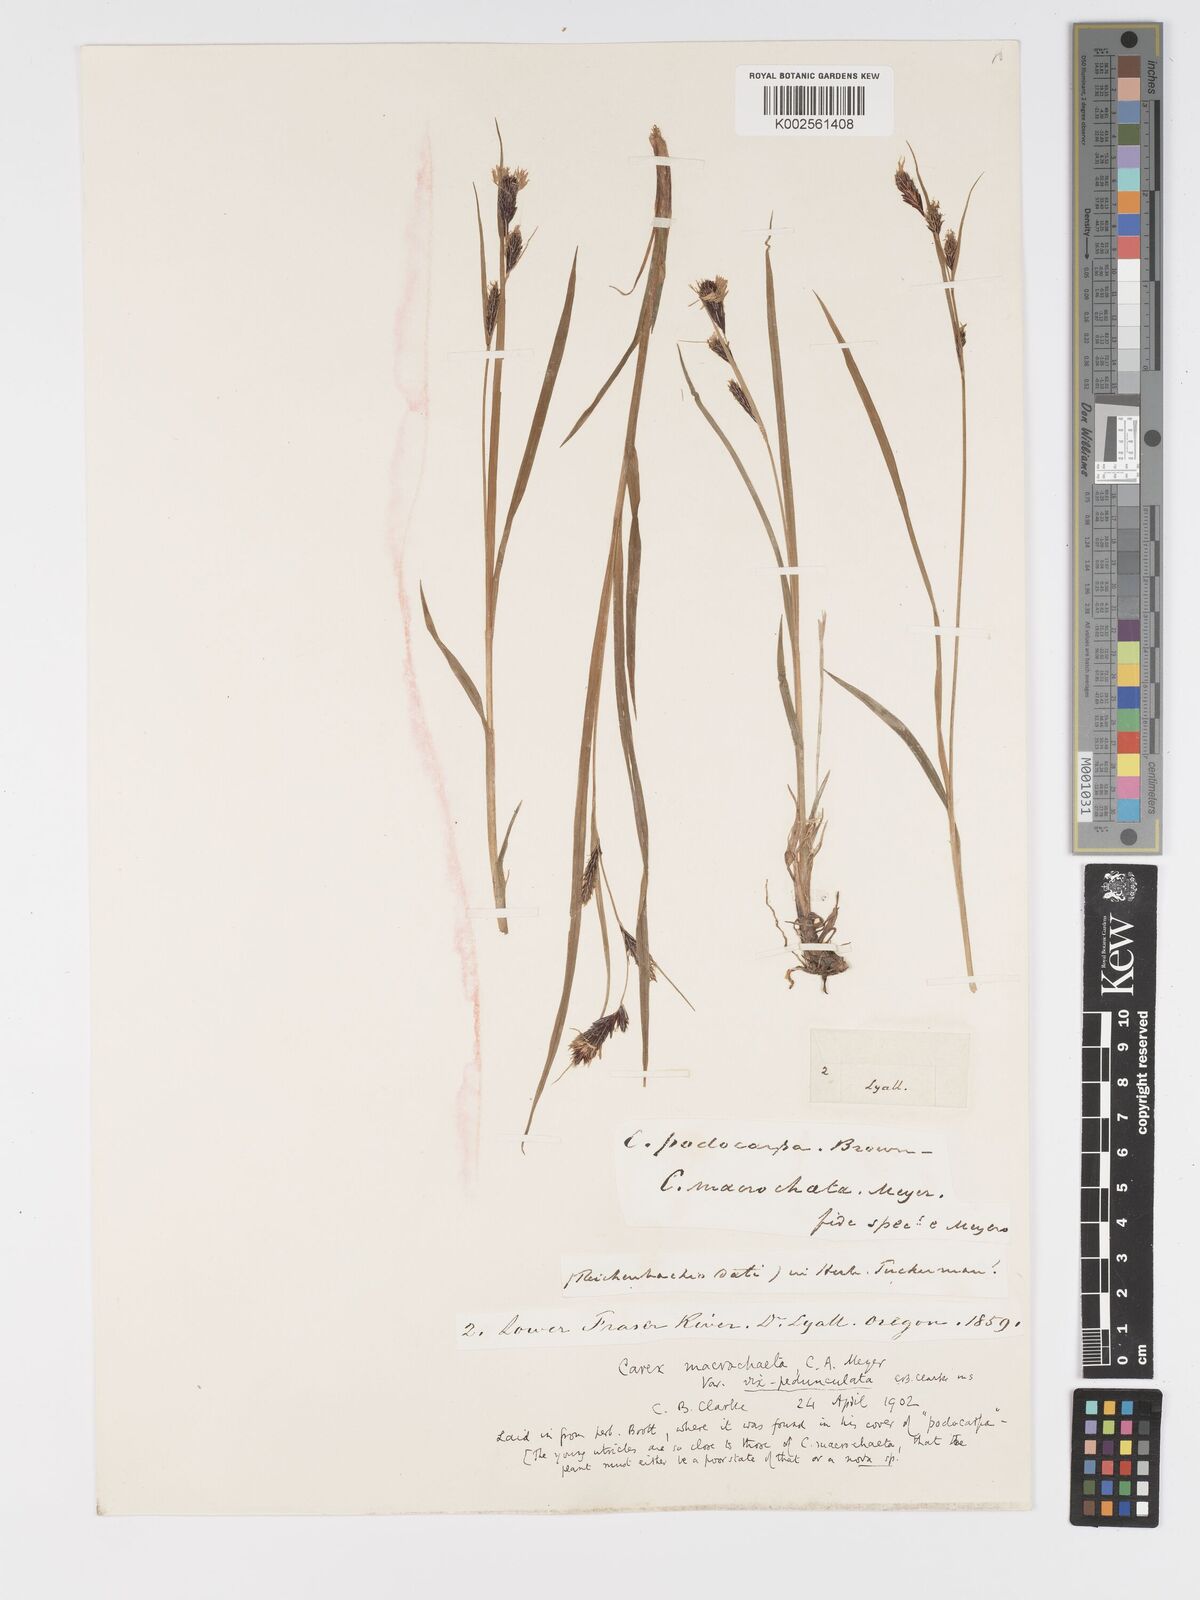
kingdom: Plantae
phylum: Tracheophyta
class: Liliopsida
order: Poales
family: Cyperaceae
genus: Carex
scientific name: Carex macrochaeta
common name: Alaska large awn sedge
